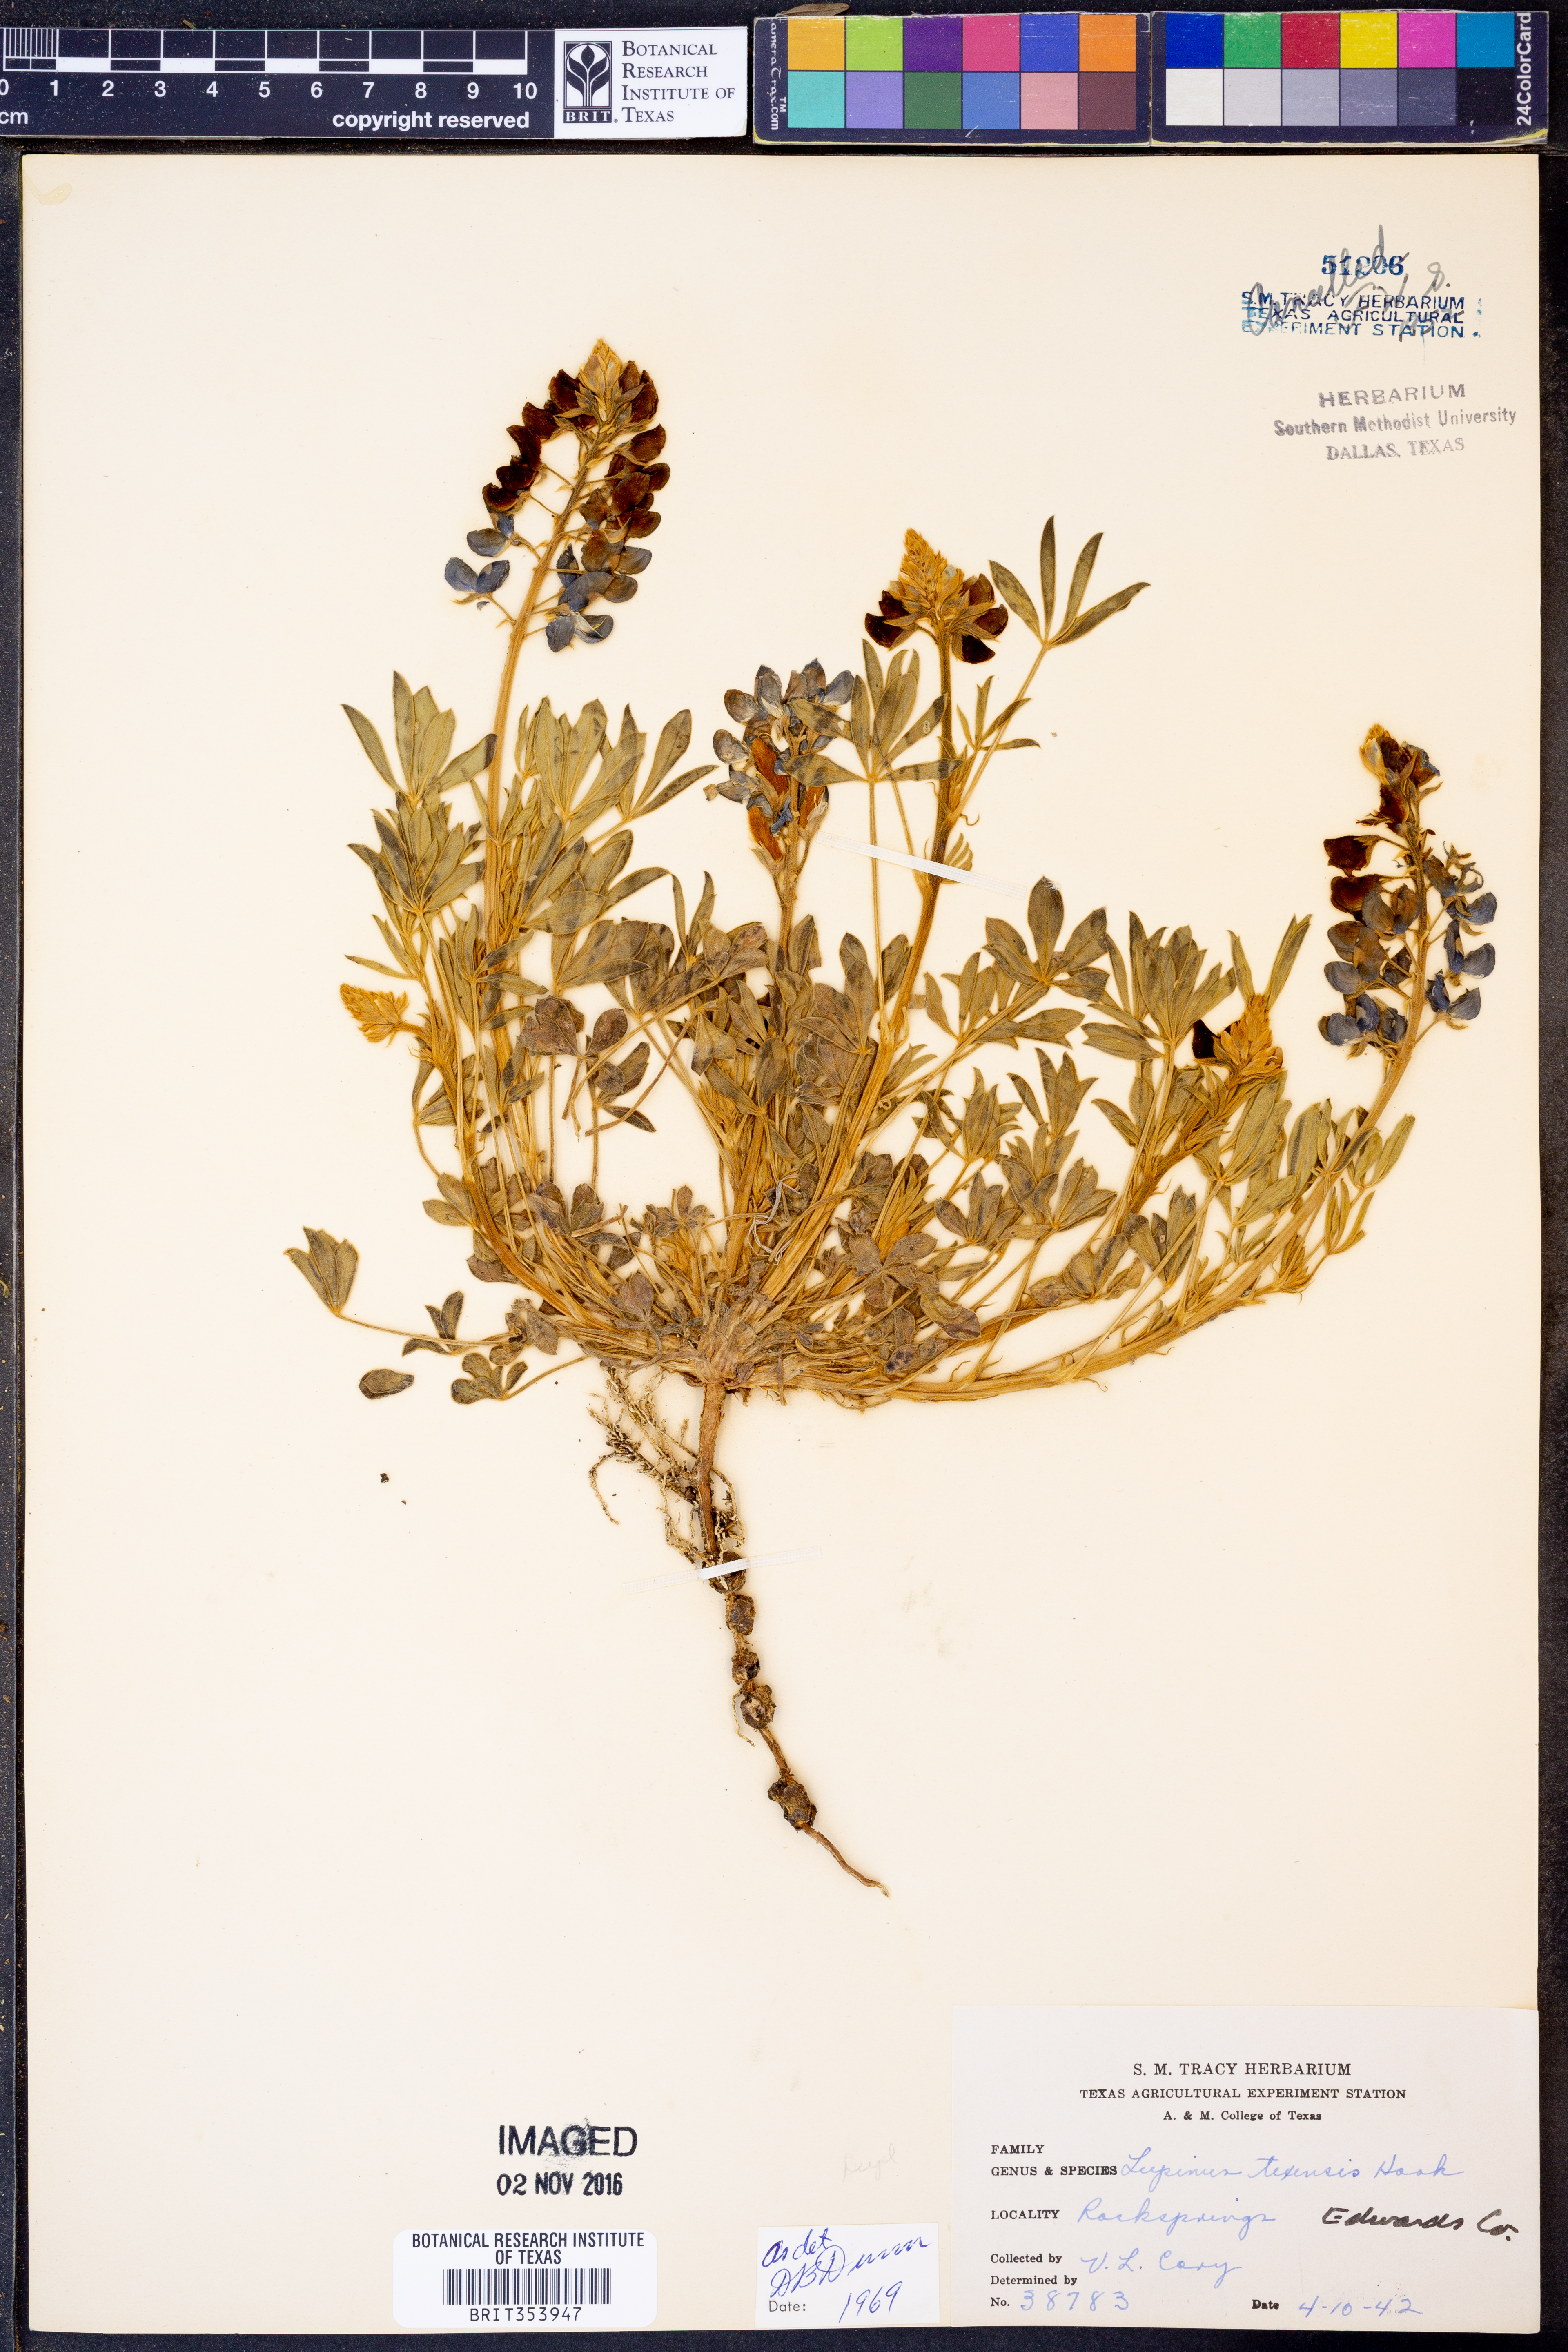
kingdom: Plantae
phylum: Tracheophyta
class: Magnoliopsida
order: Fabales
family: Fabaceae
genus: Lupinus
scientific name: Lupinus texensis
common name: Texas bluebonnet
